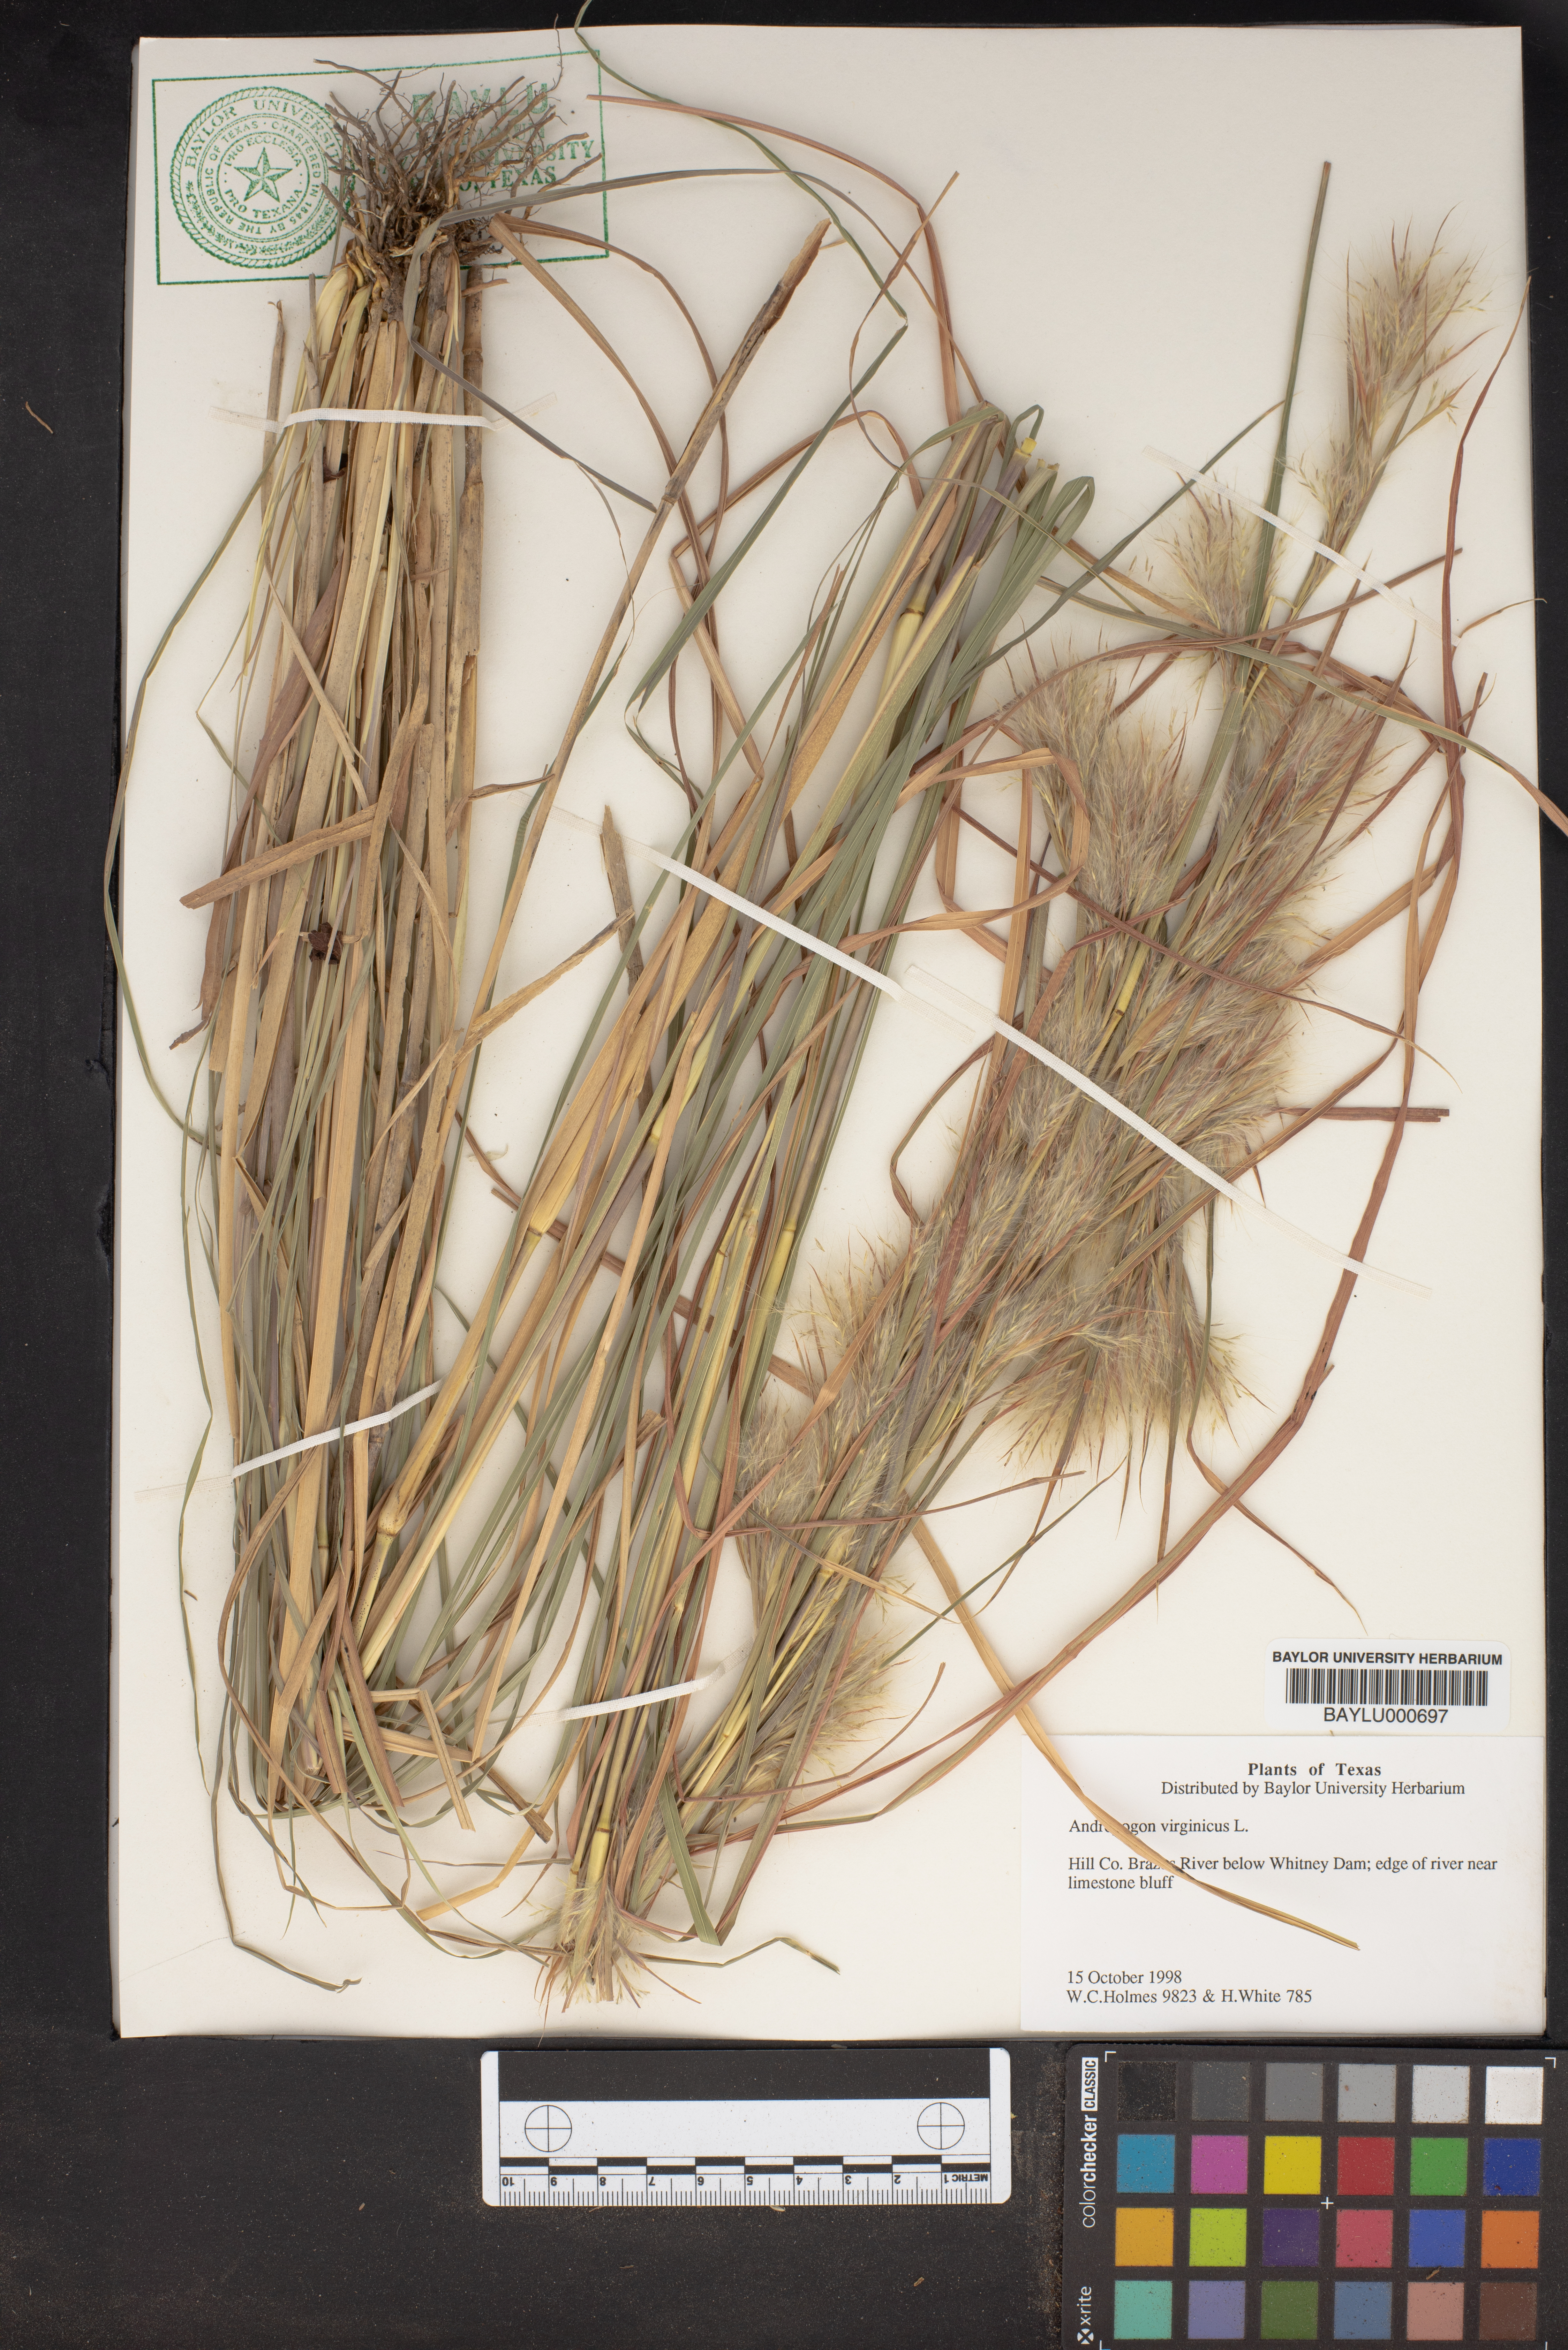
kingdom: Plantae
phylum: Tracheophyta
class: Liliopsida
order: Poales
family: Poaceae
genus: Andropogon
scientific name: Andropogon virginicus
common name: Broomsedge bluestem
